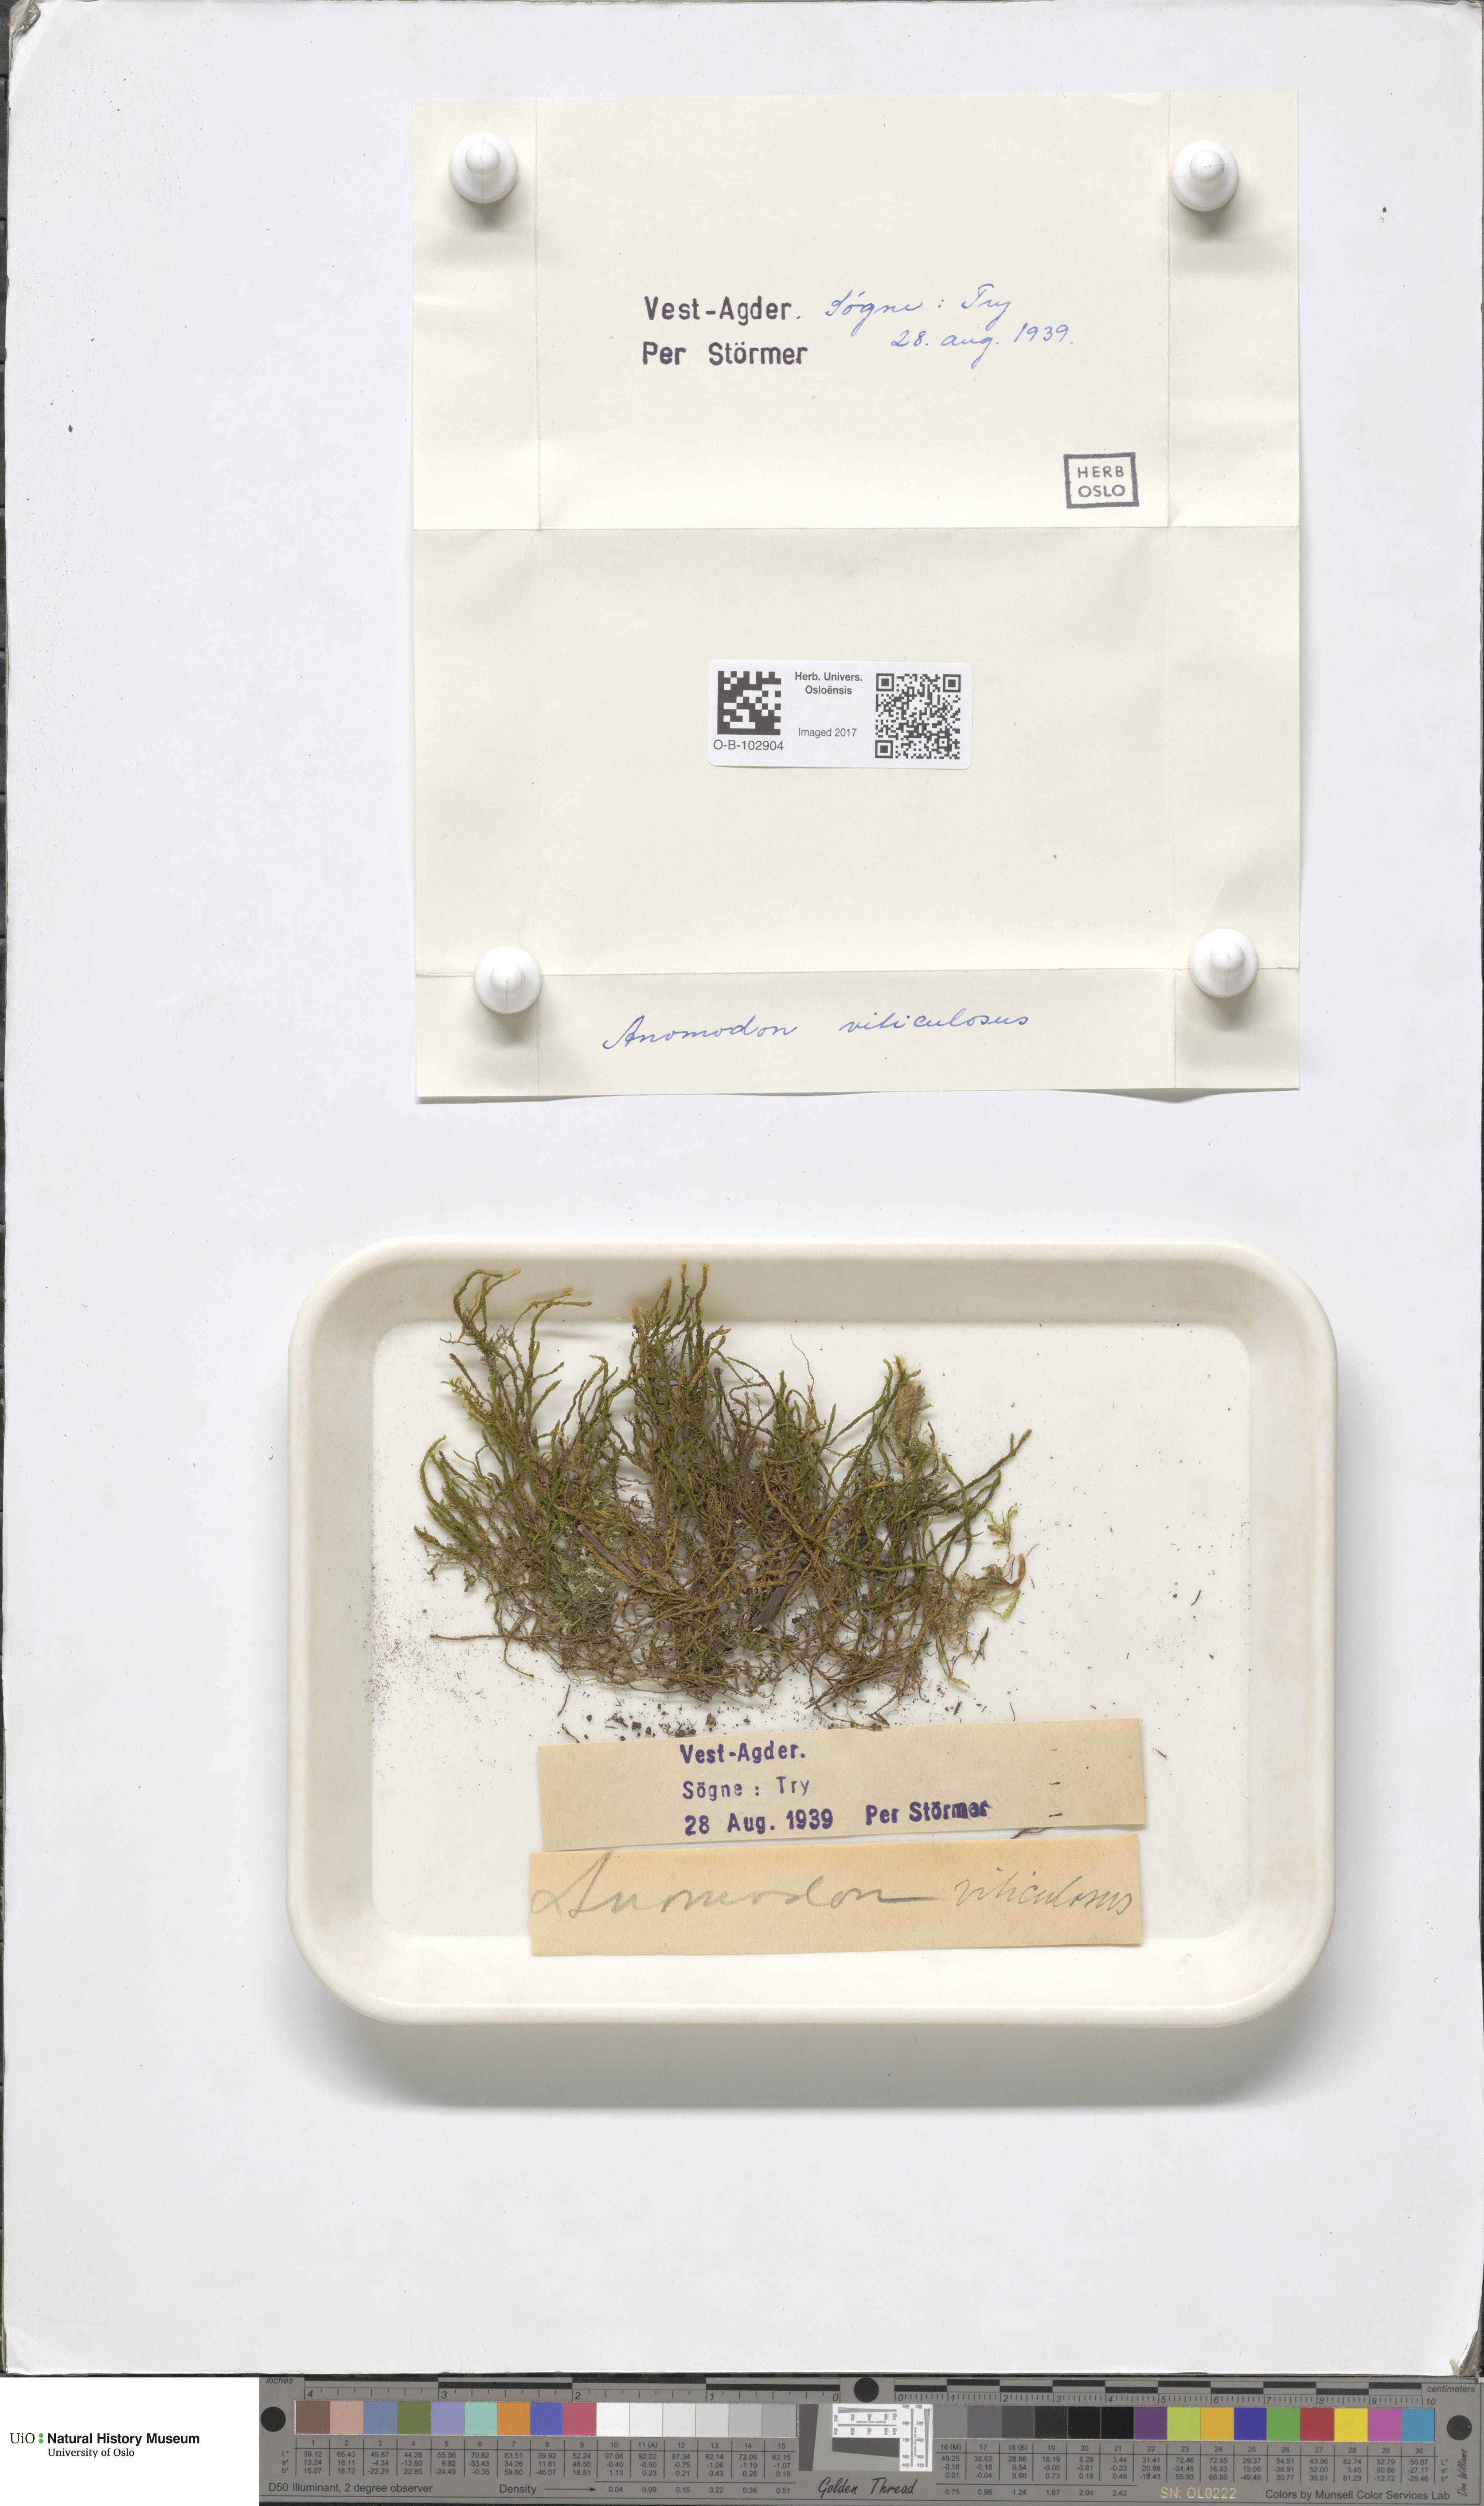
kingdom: Plantae
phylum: Bryophyta
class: Bryopsida
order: Hypnales
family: Anomodontaceae
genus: Anomodon
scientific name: Anomodon viticulosus
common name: Tall anomodon
